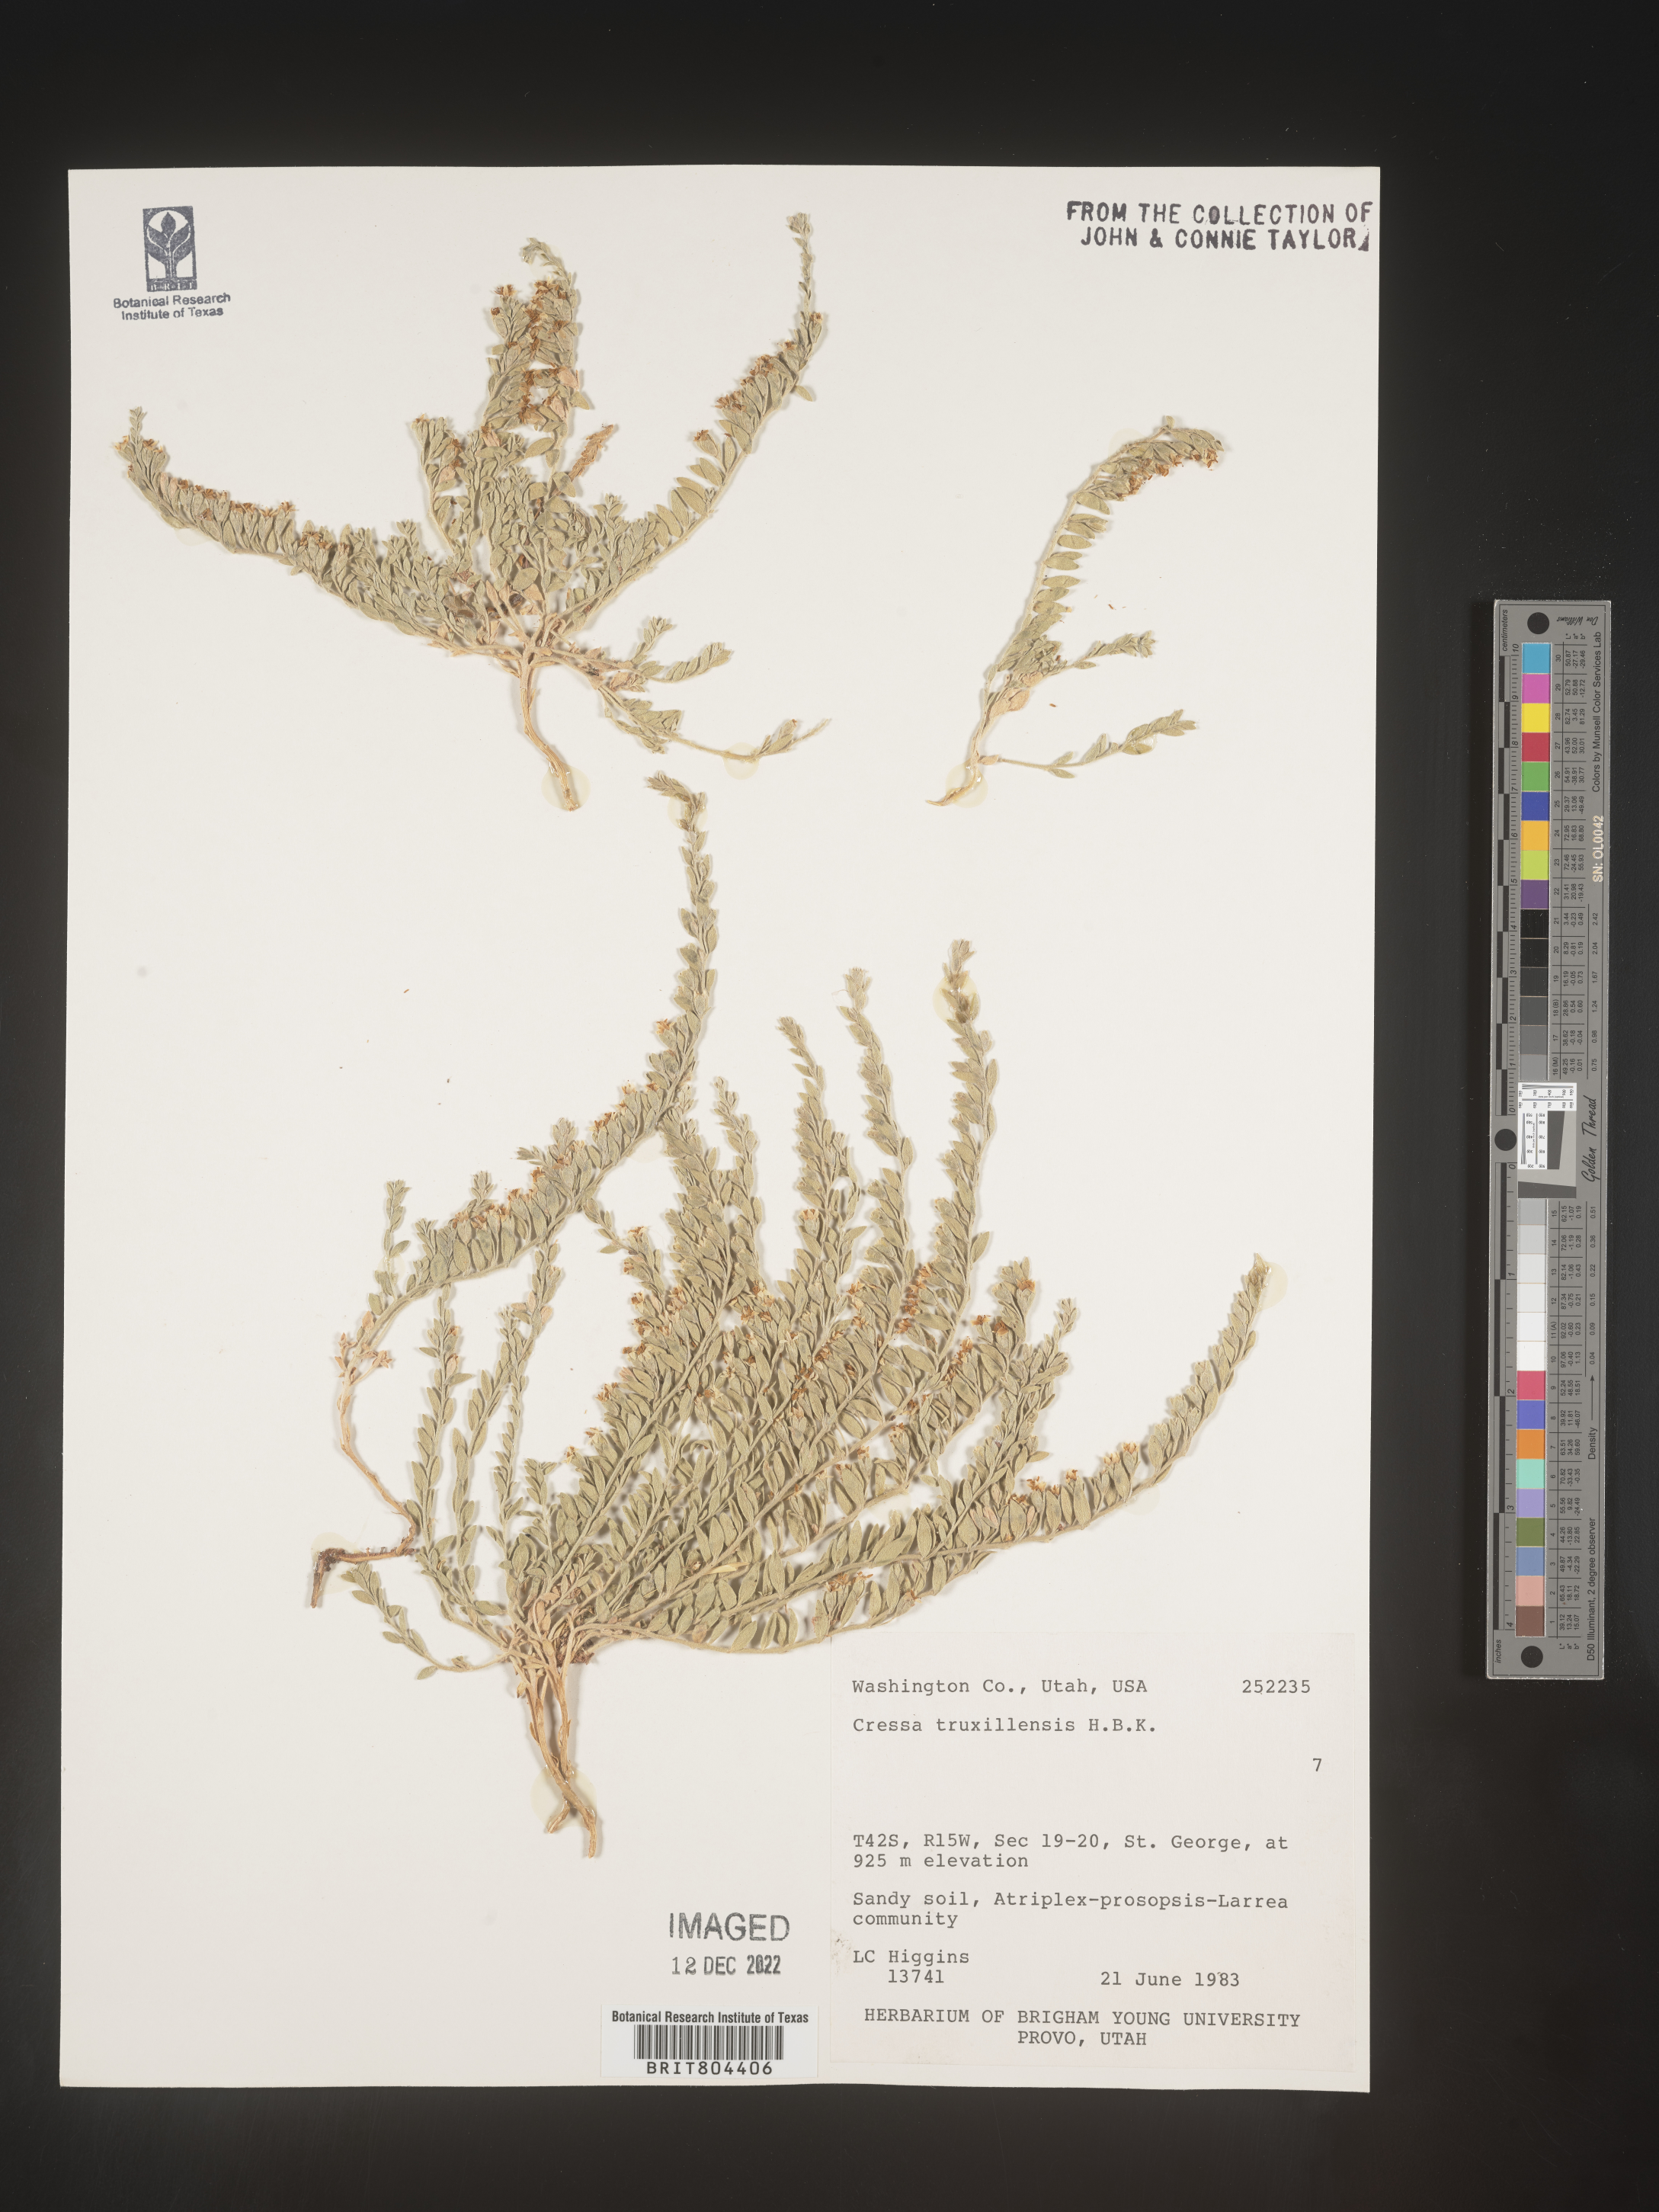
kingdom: Plantae
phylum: Tracheophyta
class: Magnoliopsida
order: Solanales
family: Convolvulaceae
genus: Cressa
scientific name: Cressa
